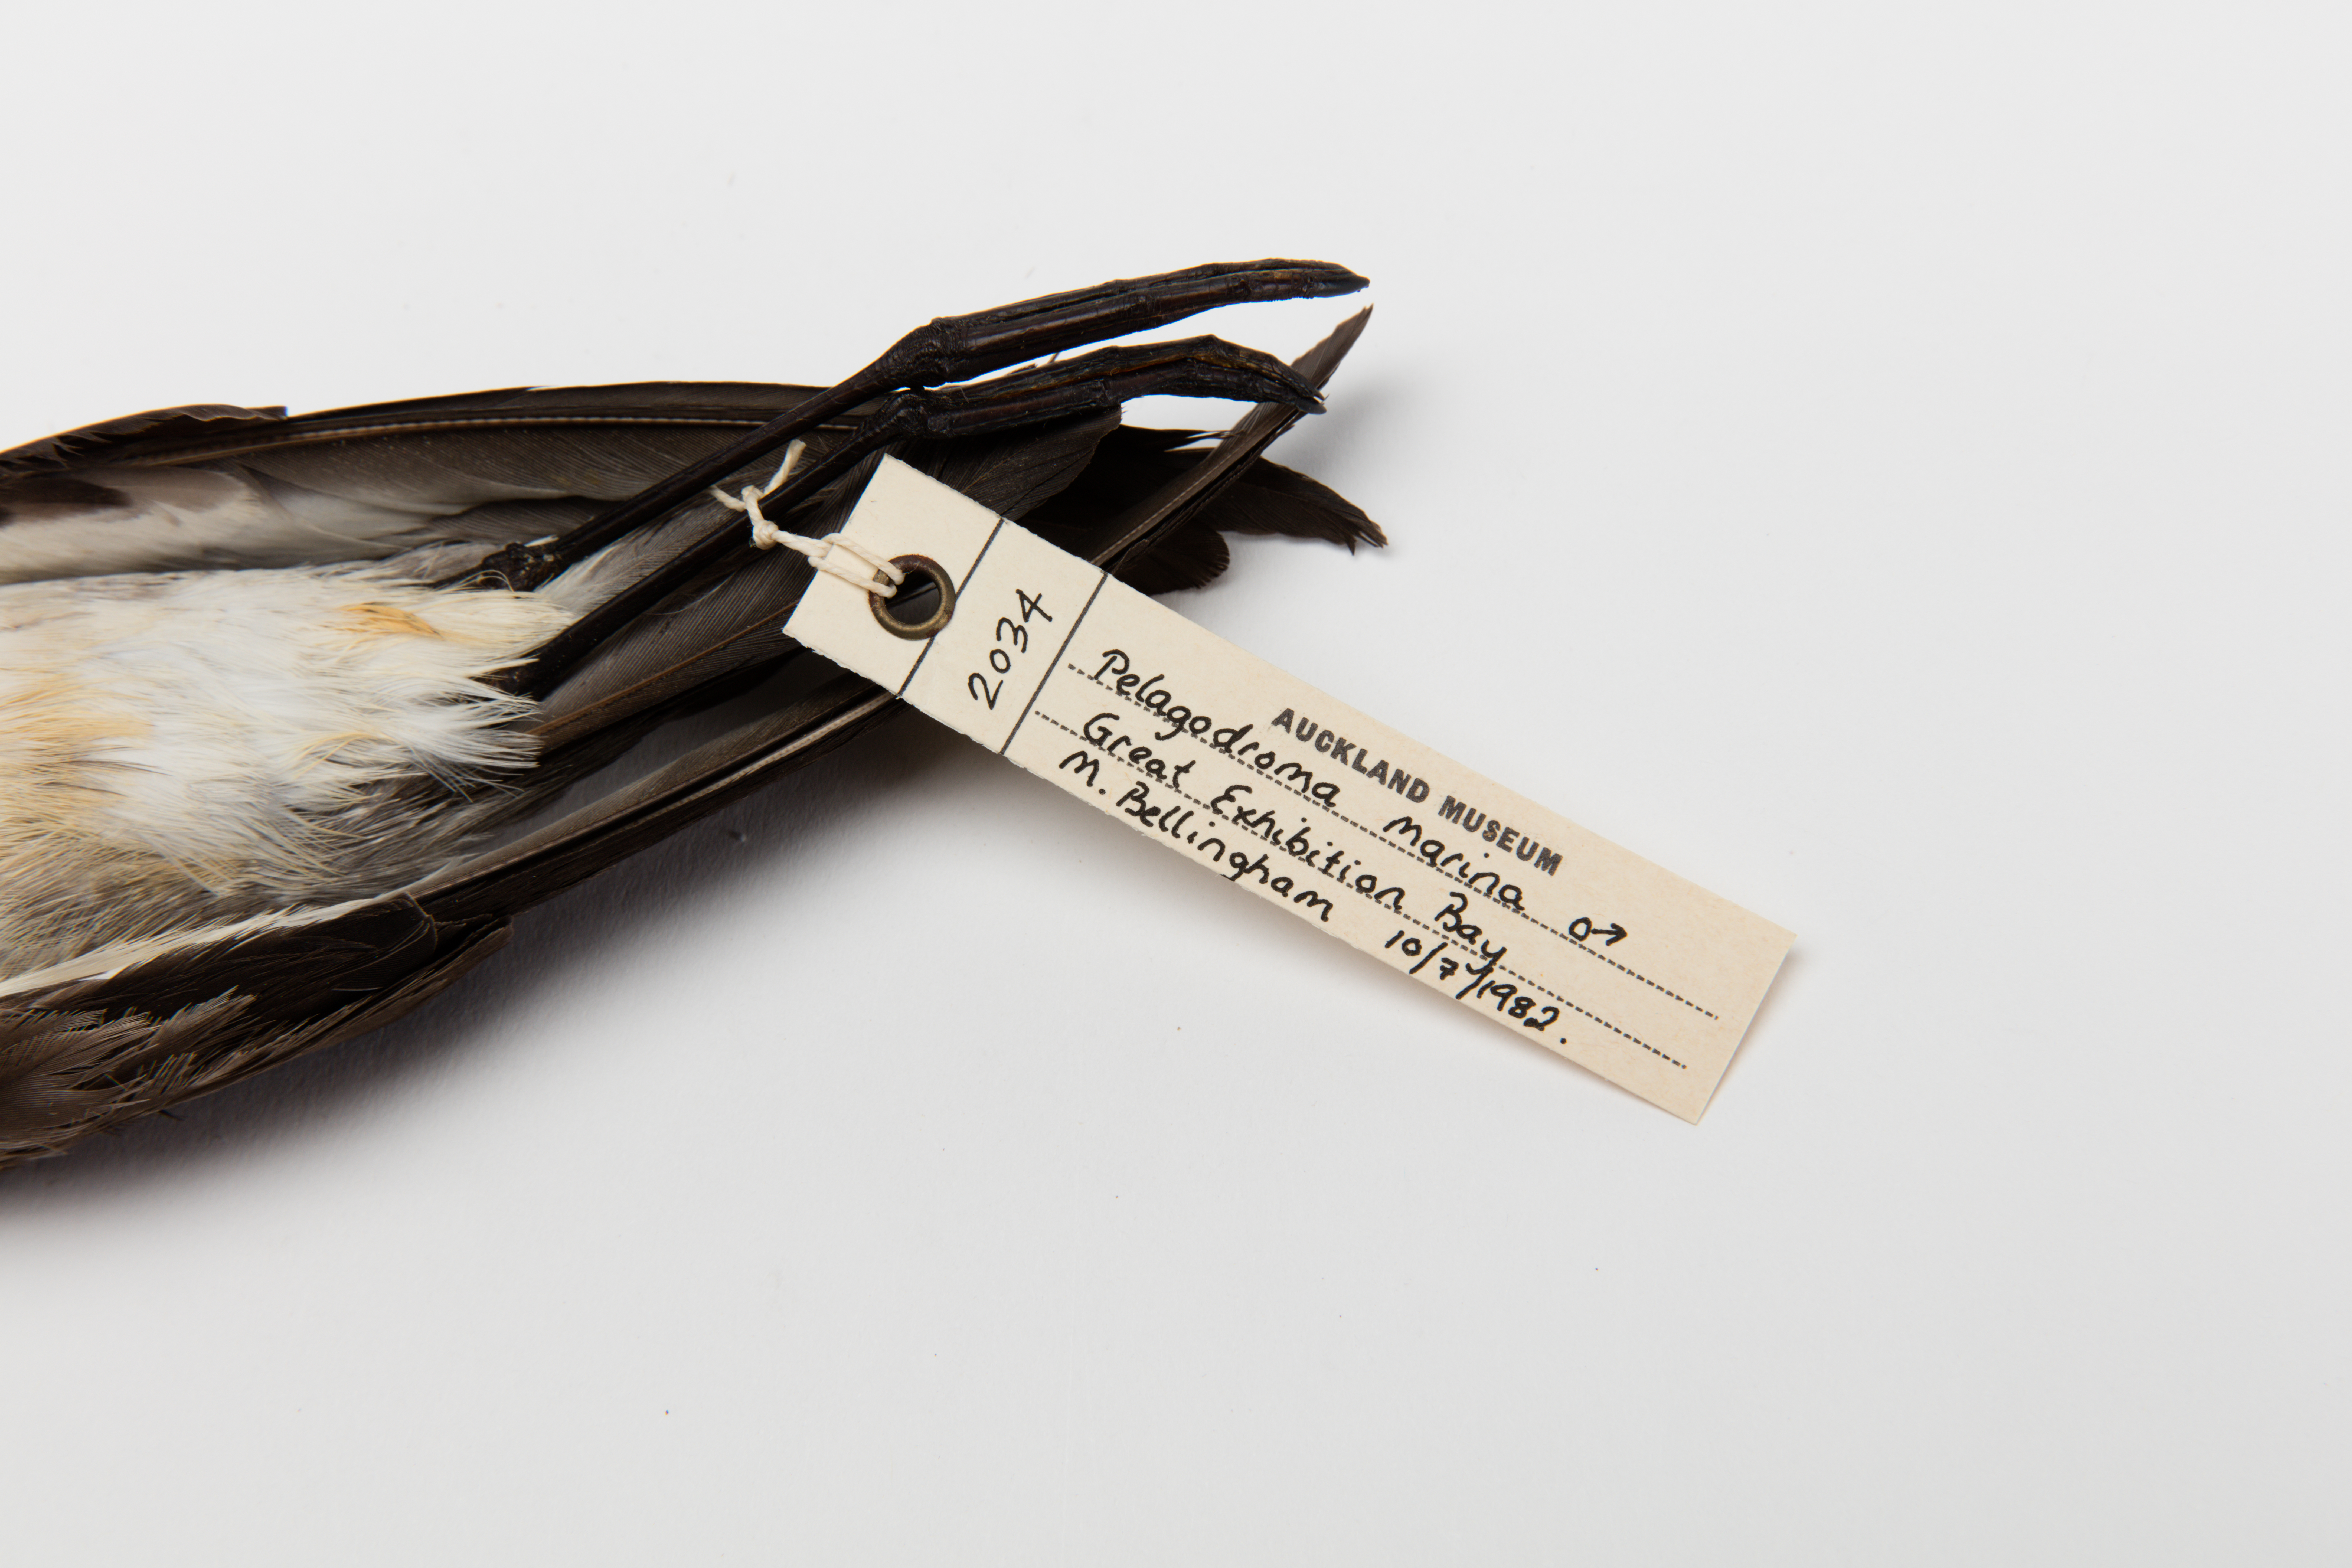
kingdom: Animalia
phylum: Chordata
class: Aves
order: Procellariiformes
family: Hydrobatidae
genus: Pelagodroma
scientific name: Pelagodroma marina
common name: White-faced storm-petrel
